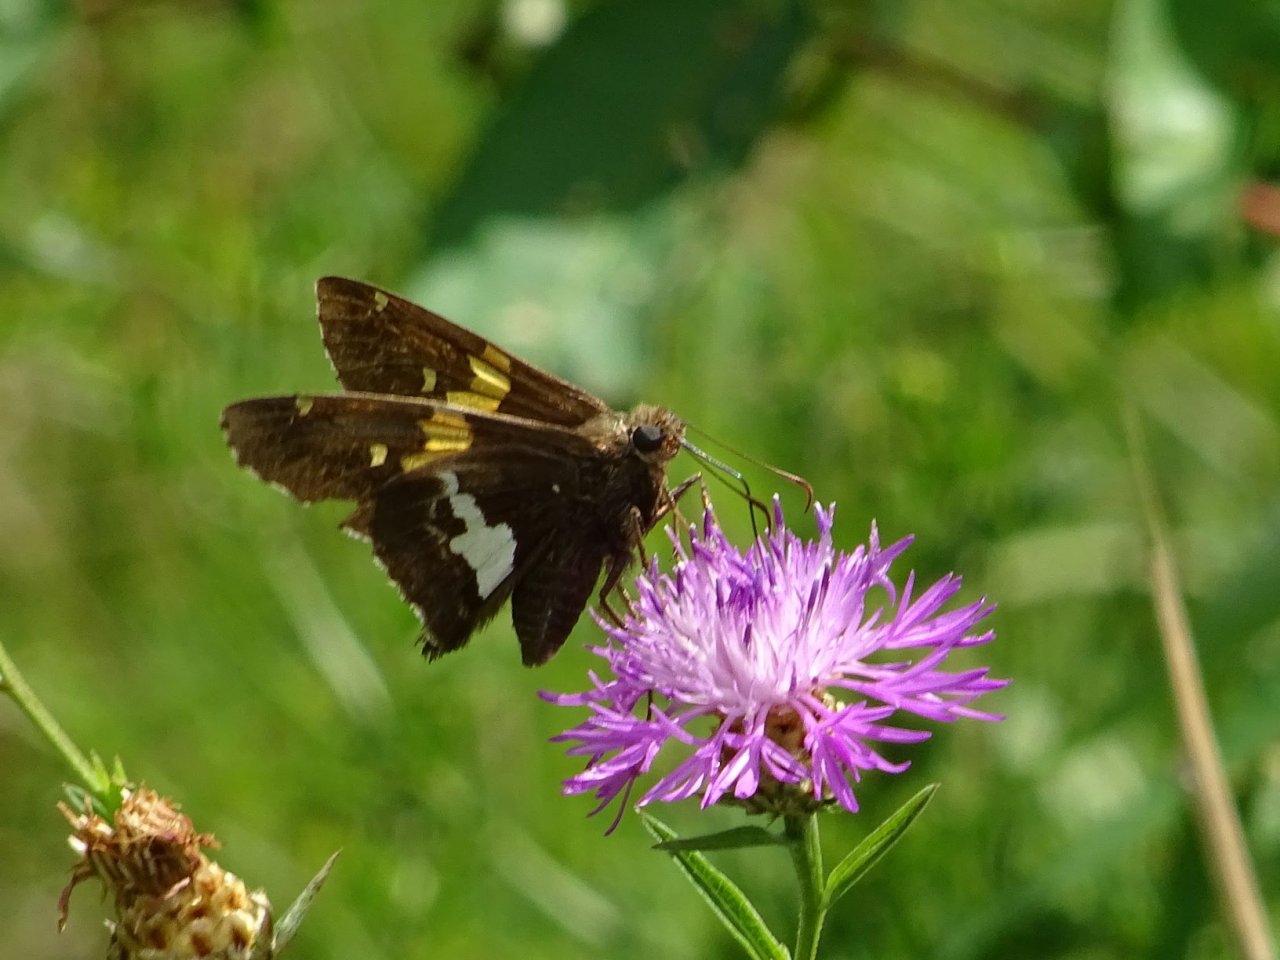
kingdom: Animalia
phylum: Arthropoda
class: Insecta
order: Lepidoptera
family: Hesperiidae
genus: Epargyreus
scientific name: Epargyreus clarus
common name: Silver-spotted Skipper
